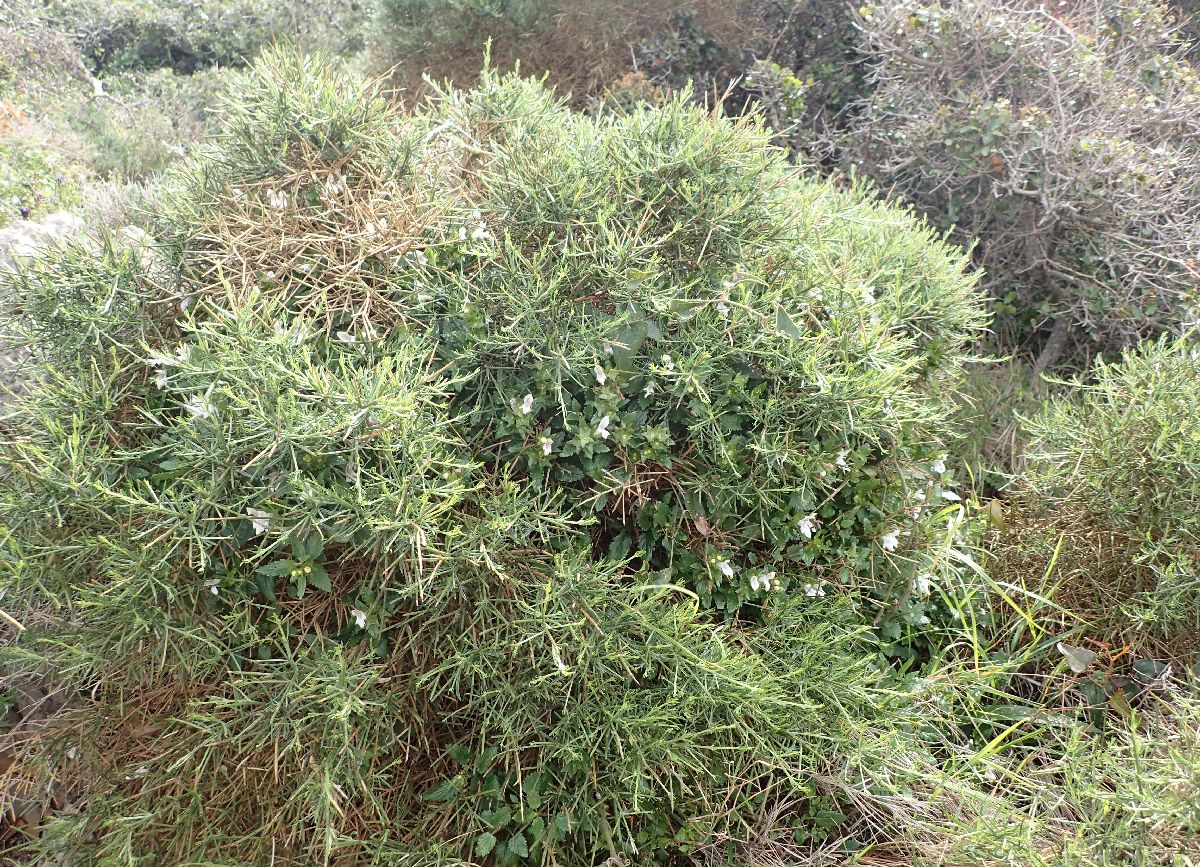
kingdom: Plantae
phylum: Tracheophyta
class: Magnoliopsida
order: Fabales
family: Fabaceae
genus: Genista
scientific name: Genista acanthoclada
